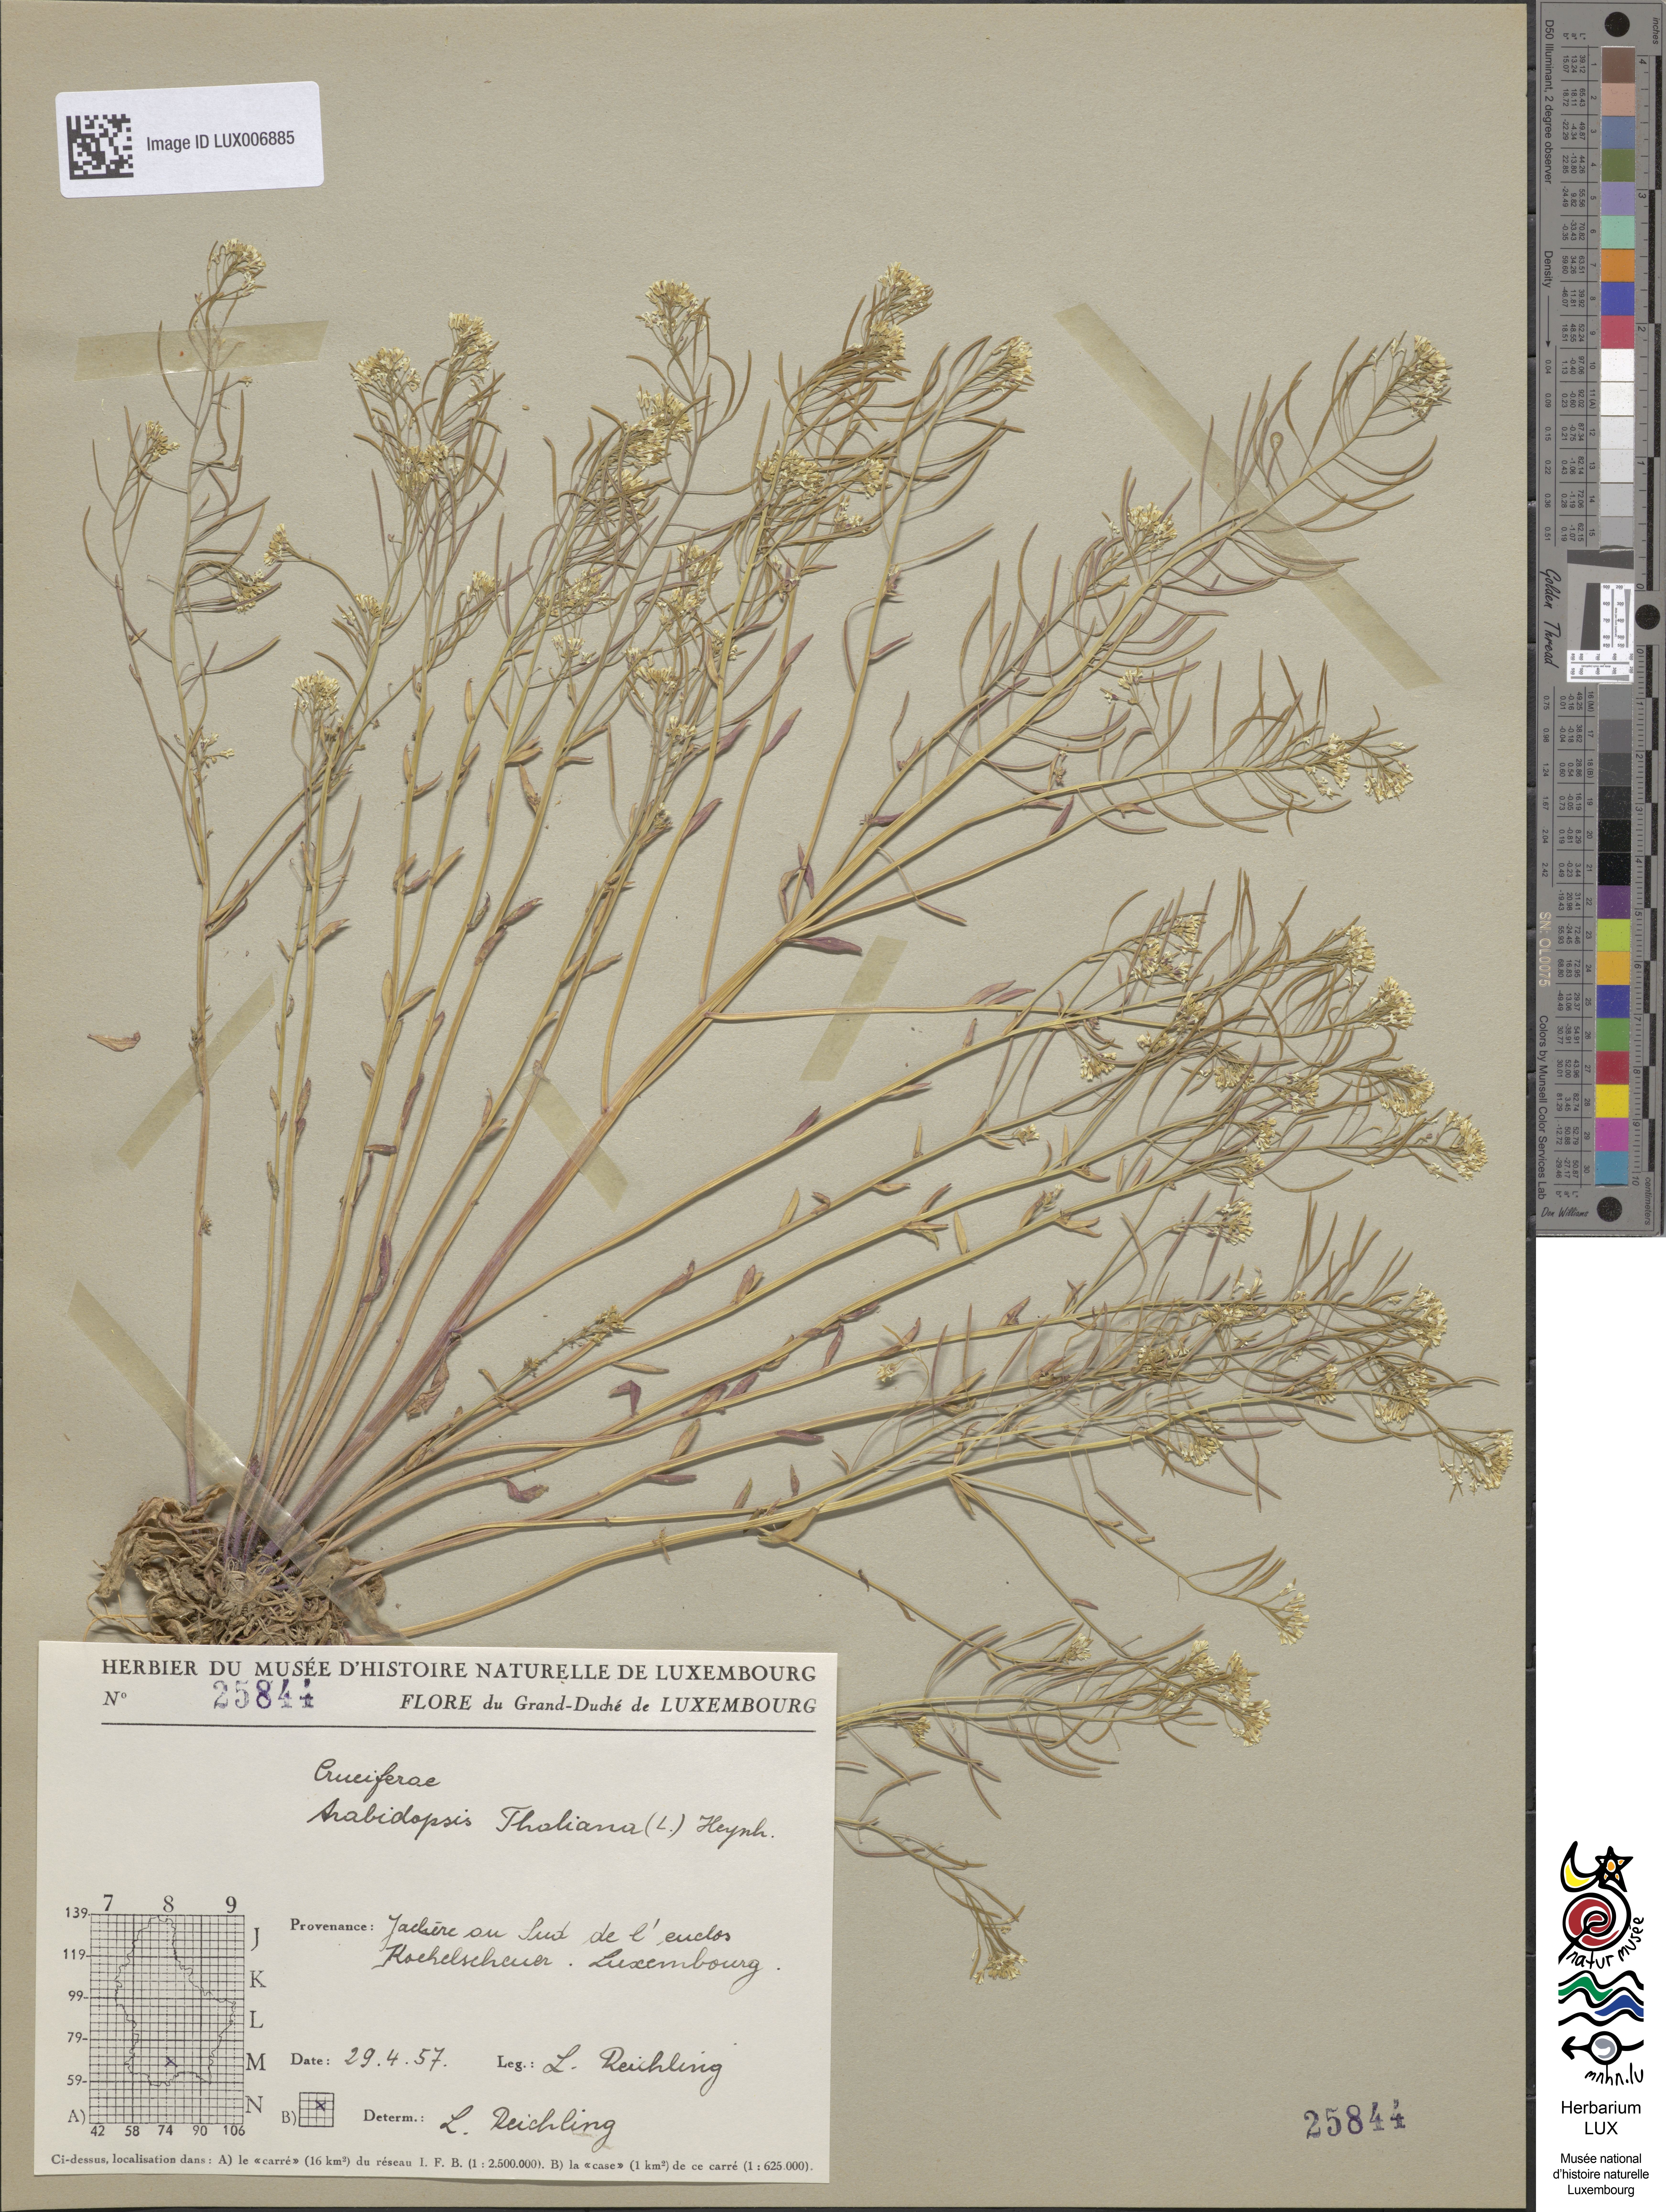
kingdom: Plantae
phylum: Tracheophyta
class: Magnoliopsida
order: Brassicales
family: Brassicaceae
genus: Arabidopsis
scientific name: Arabidopsis thaliana
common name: Thale cress
